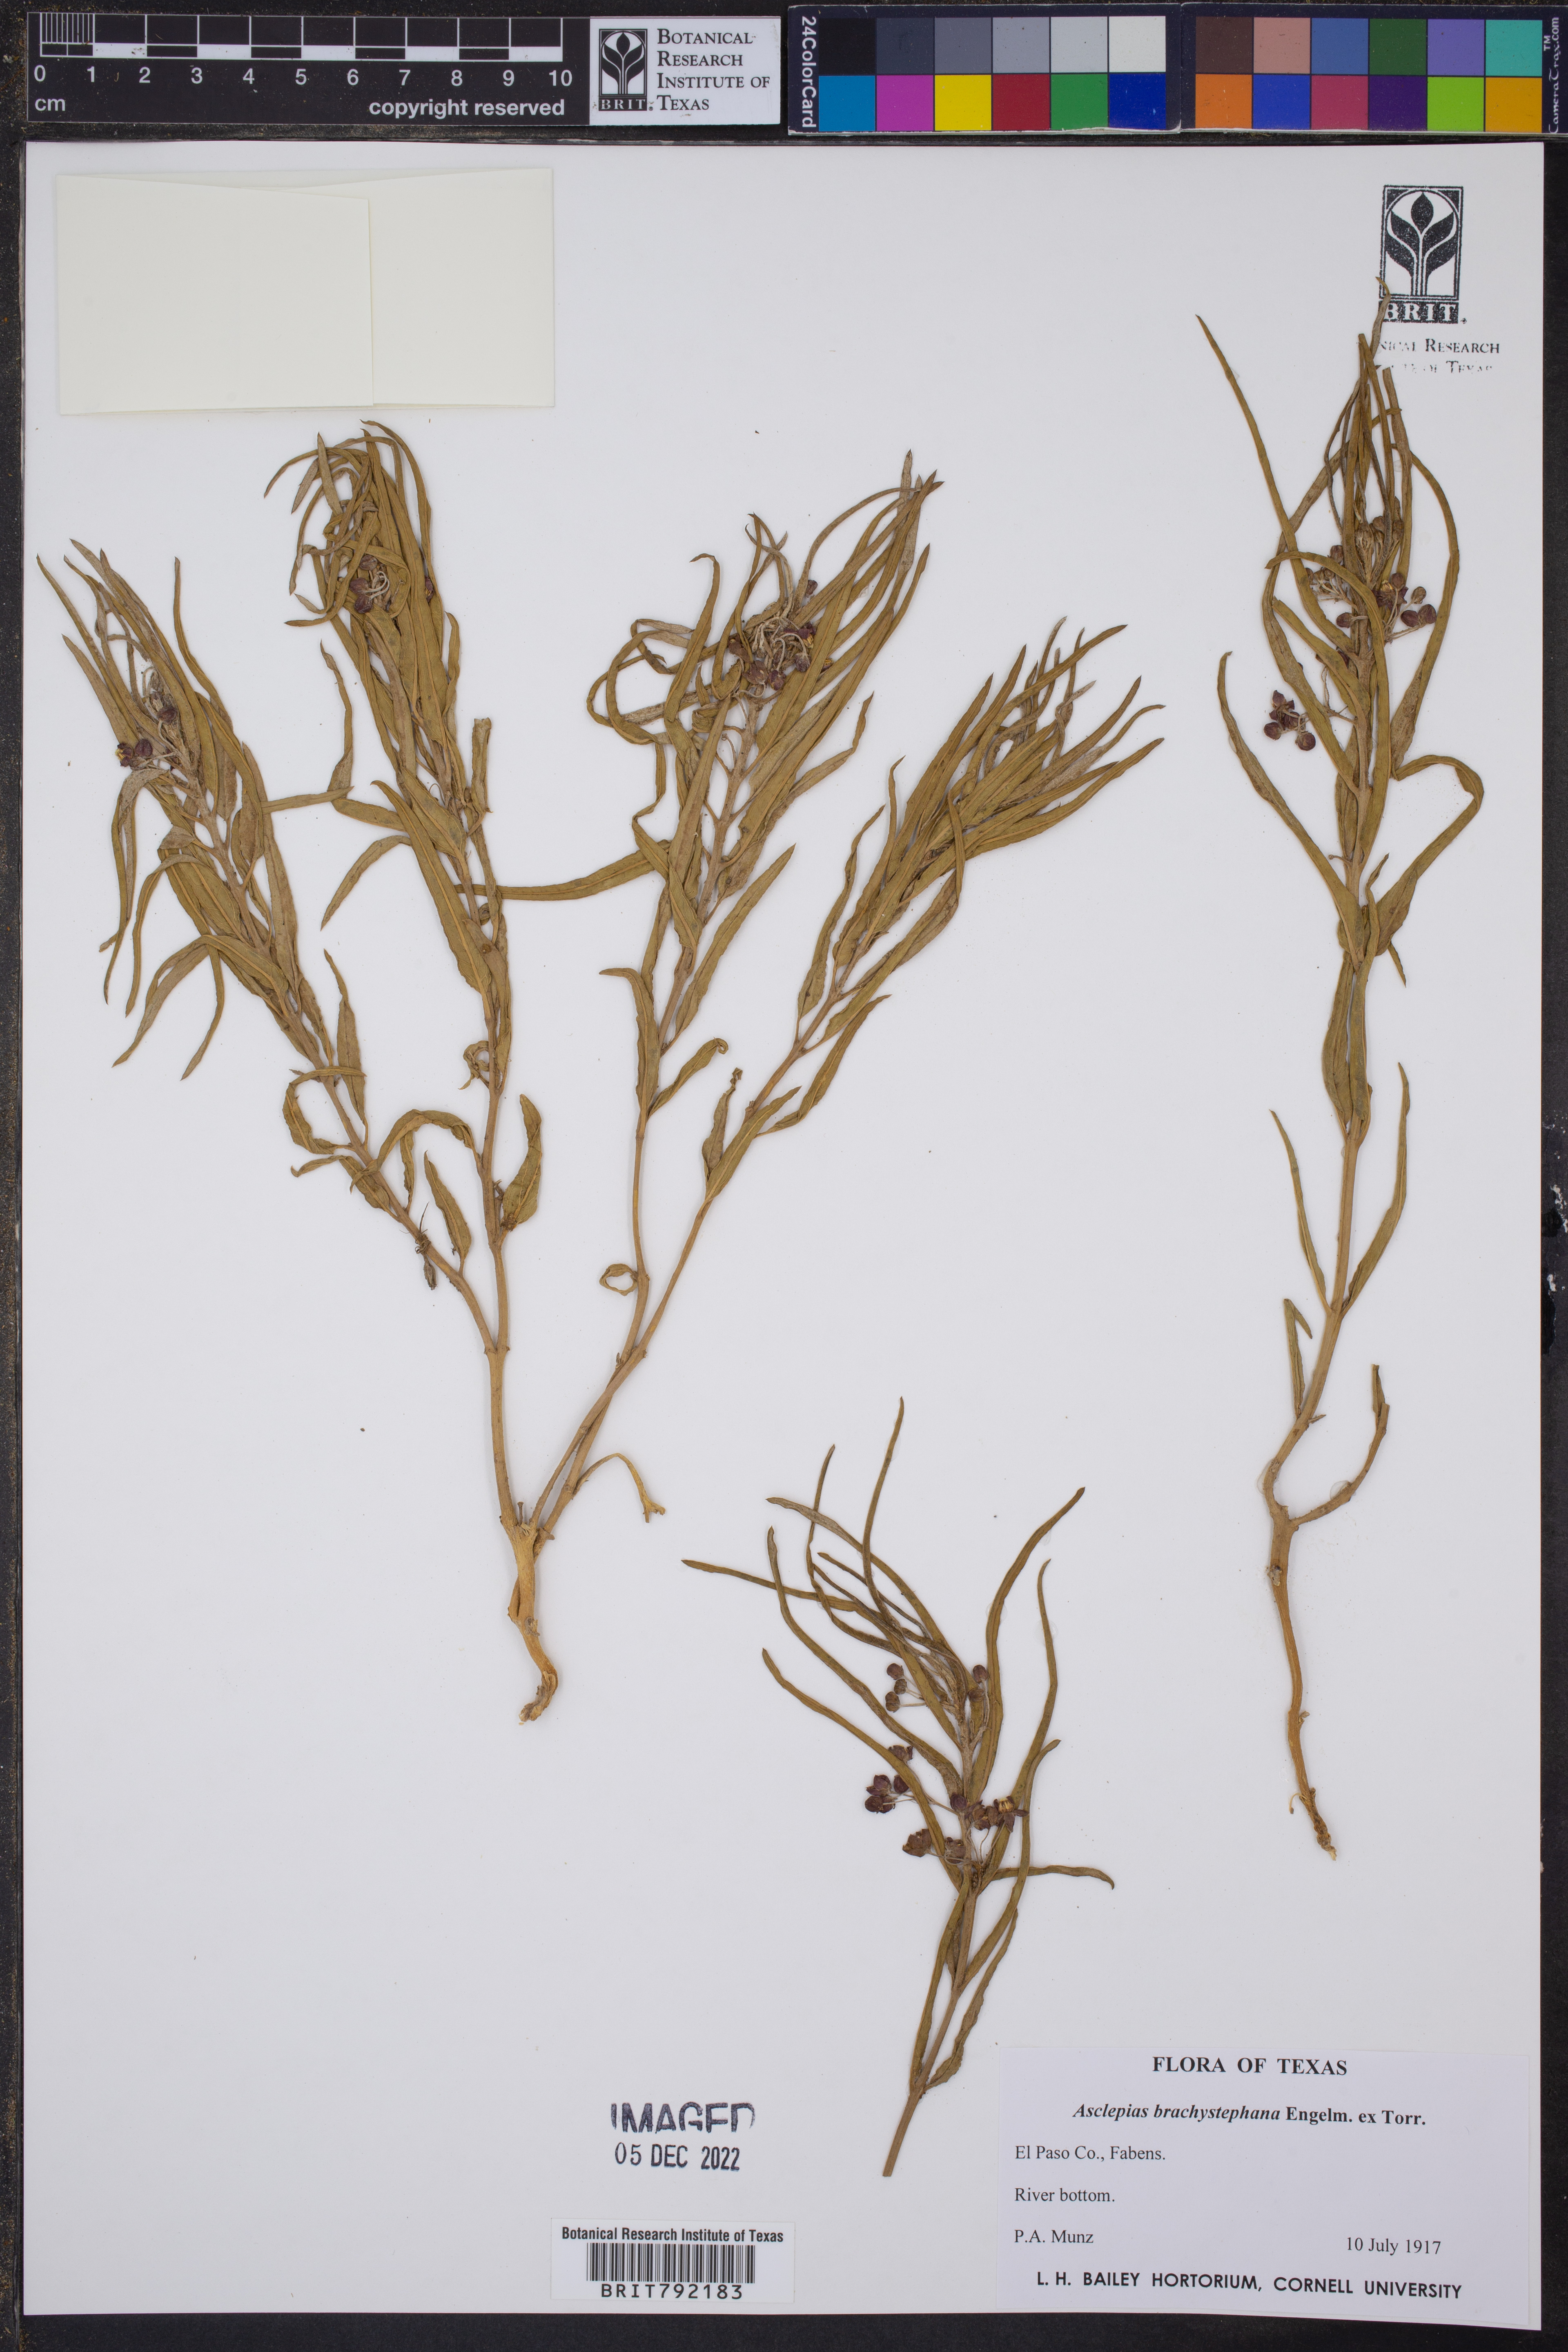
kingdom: Plantae
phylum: Tracheophyta
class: Magnoliopsida
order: Gentianales
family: Apocynaceae
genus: Asclepias
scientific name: Asclepias brachystephana
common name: Shortcrown milkweed
